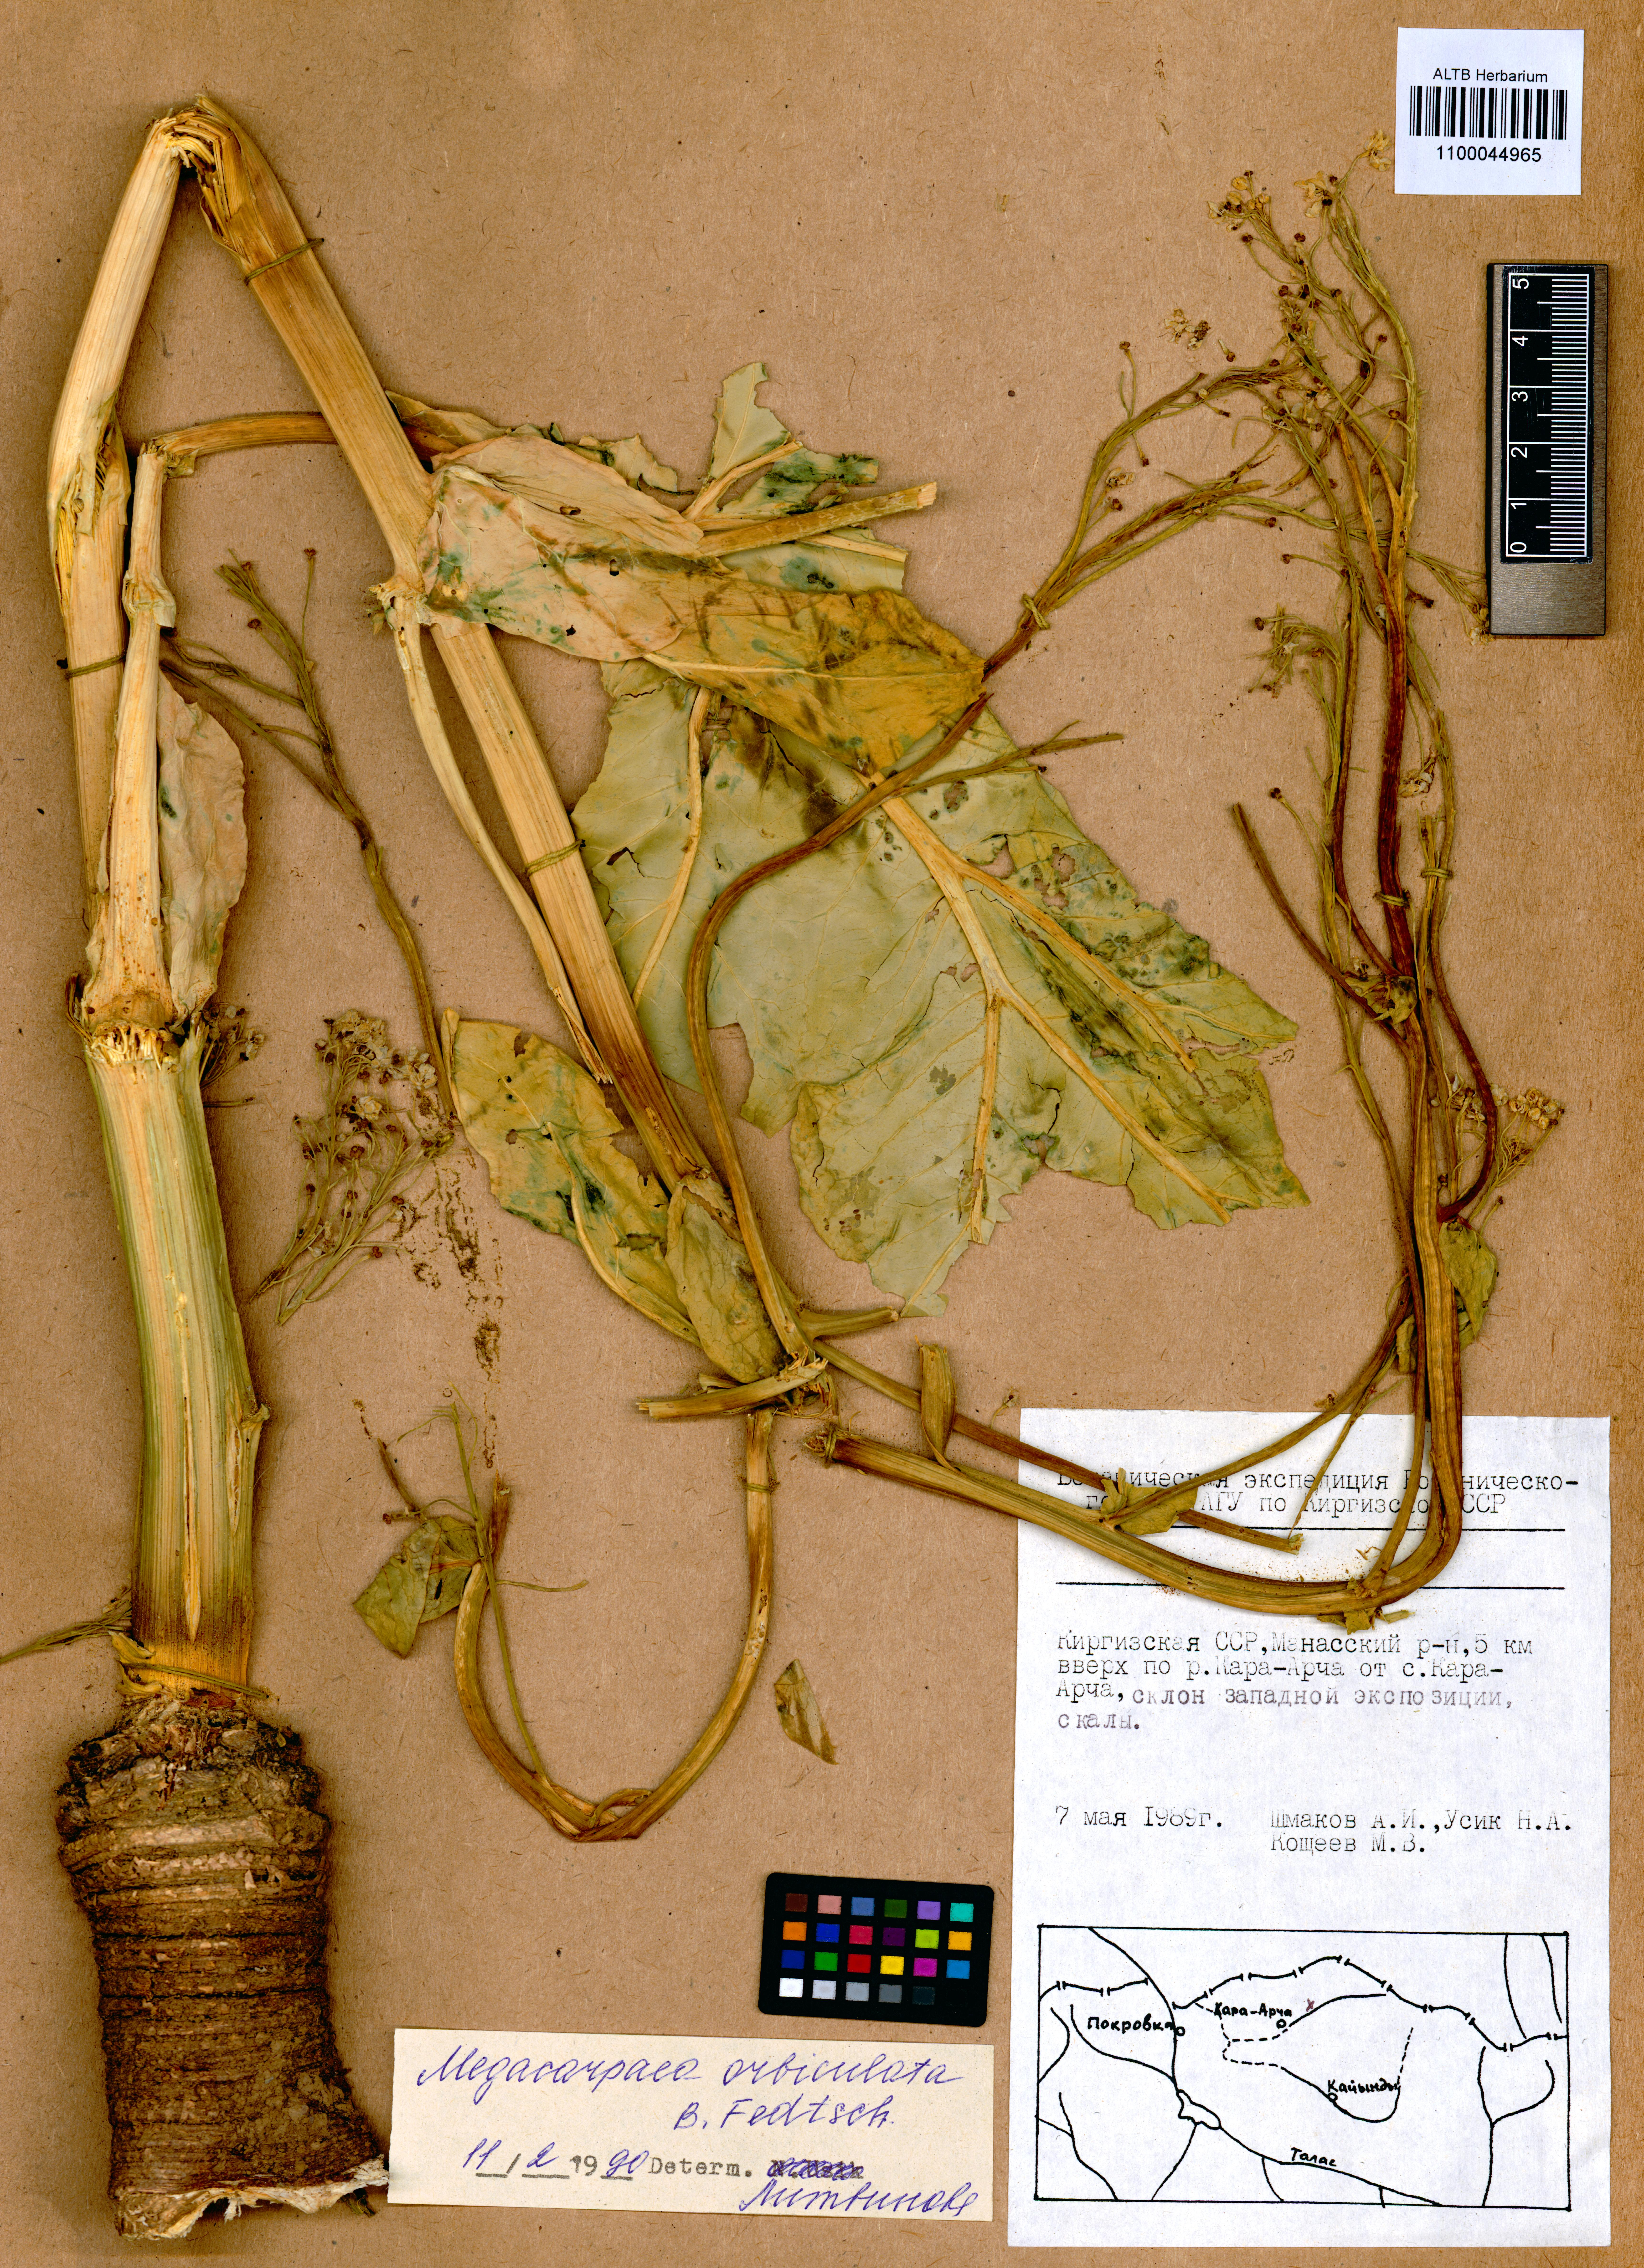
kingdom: Plantae
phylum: Tracheophyta
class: Magnoliopsida
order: Brassicales
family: Brassicaceae
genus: Megacarpaea
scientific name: Megacarpaea orbiculata
